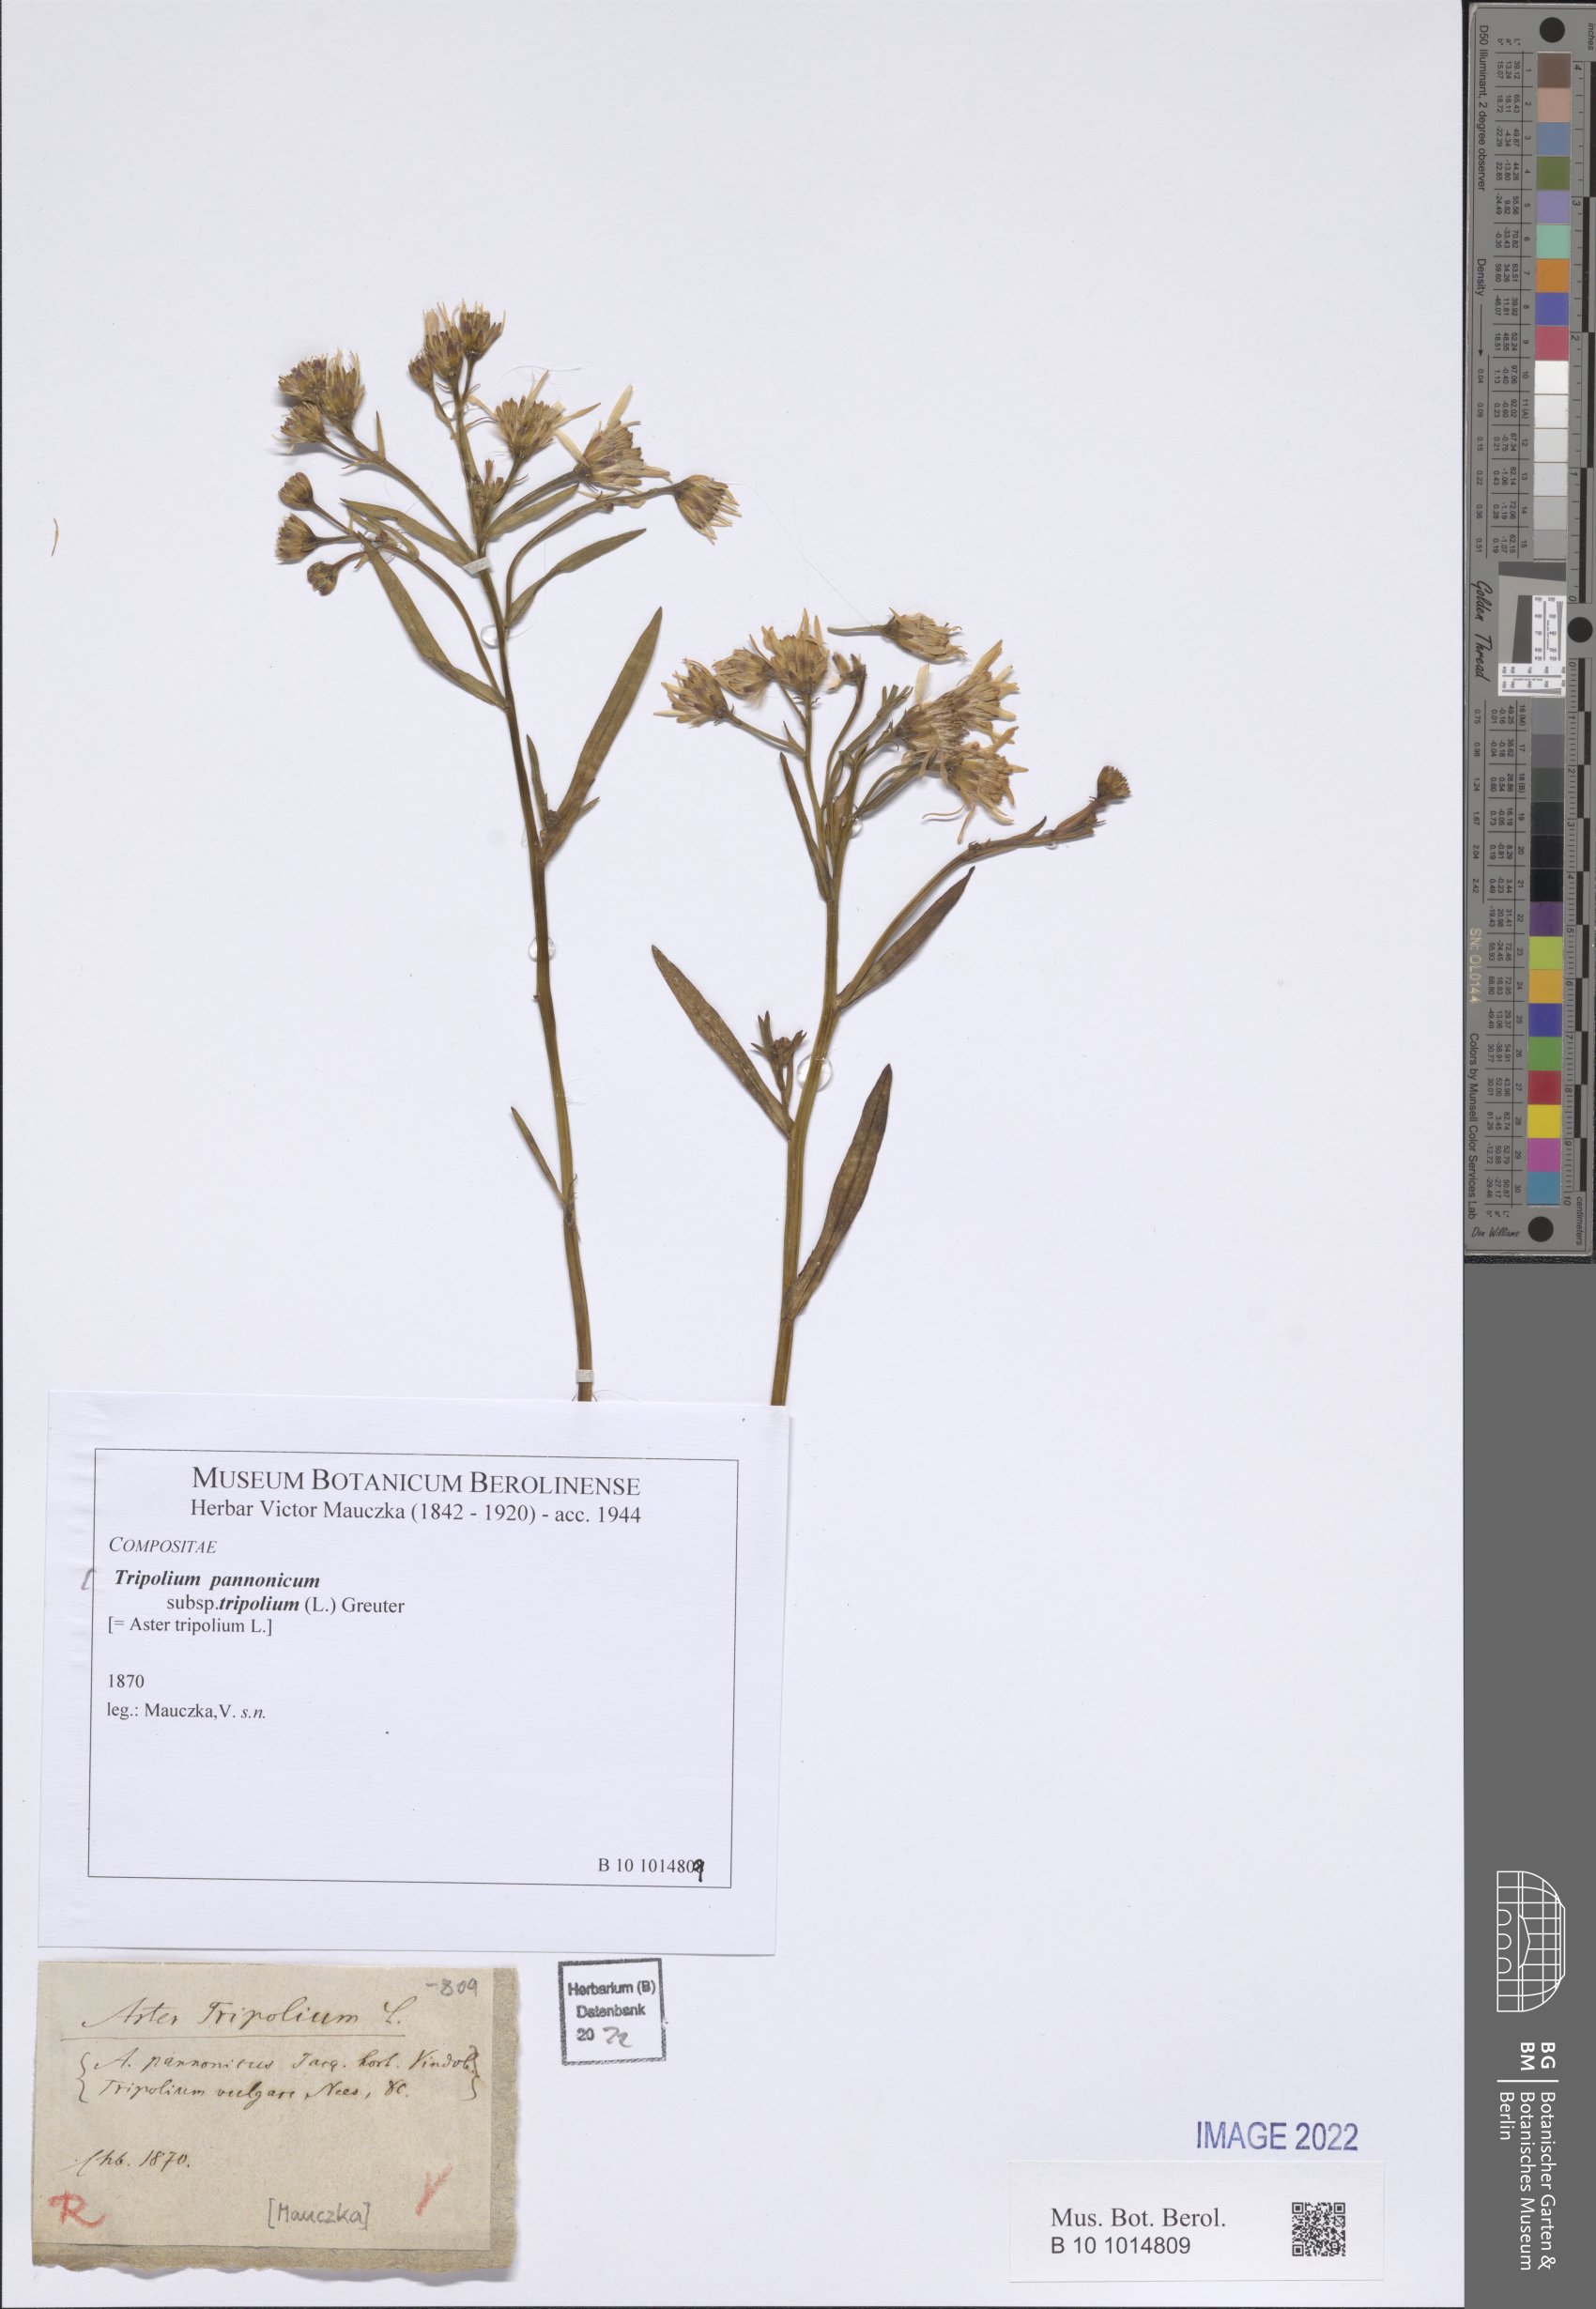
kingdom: Plantae
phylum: Tracheophyta
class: Magnoliopsida
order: Asterales
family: Asteraceae
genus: Tripolium
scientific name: Tripolium pannonicum
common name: Sea aster
